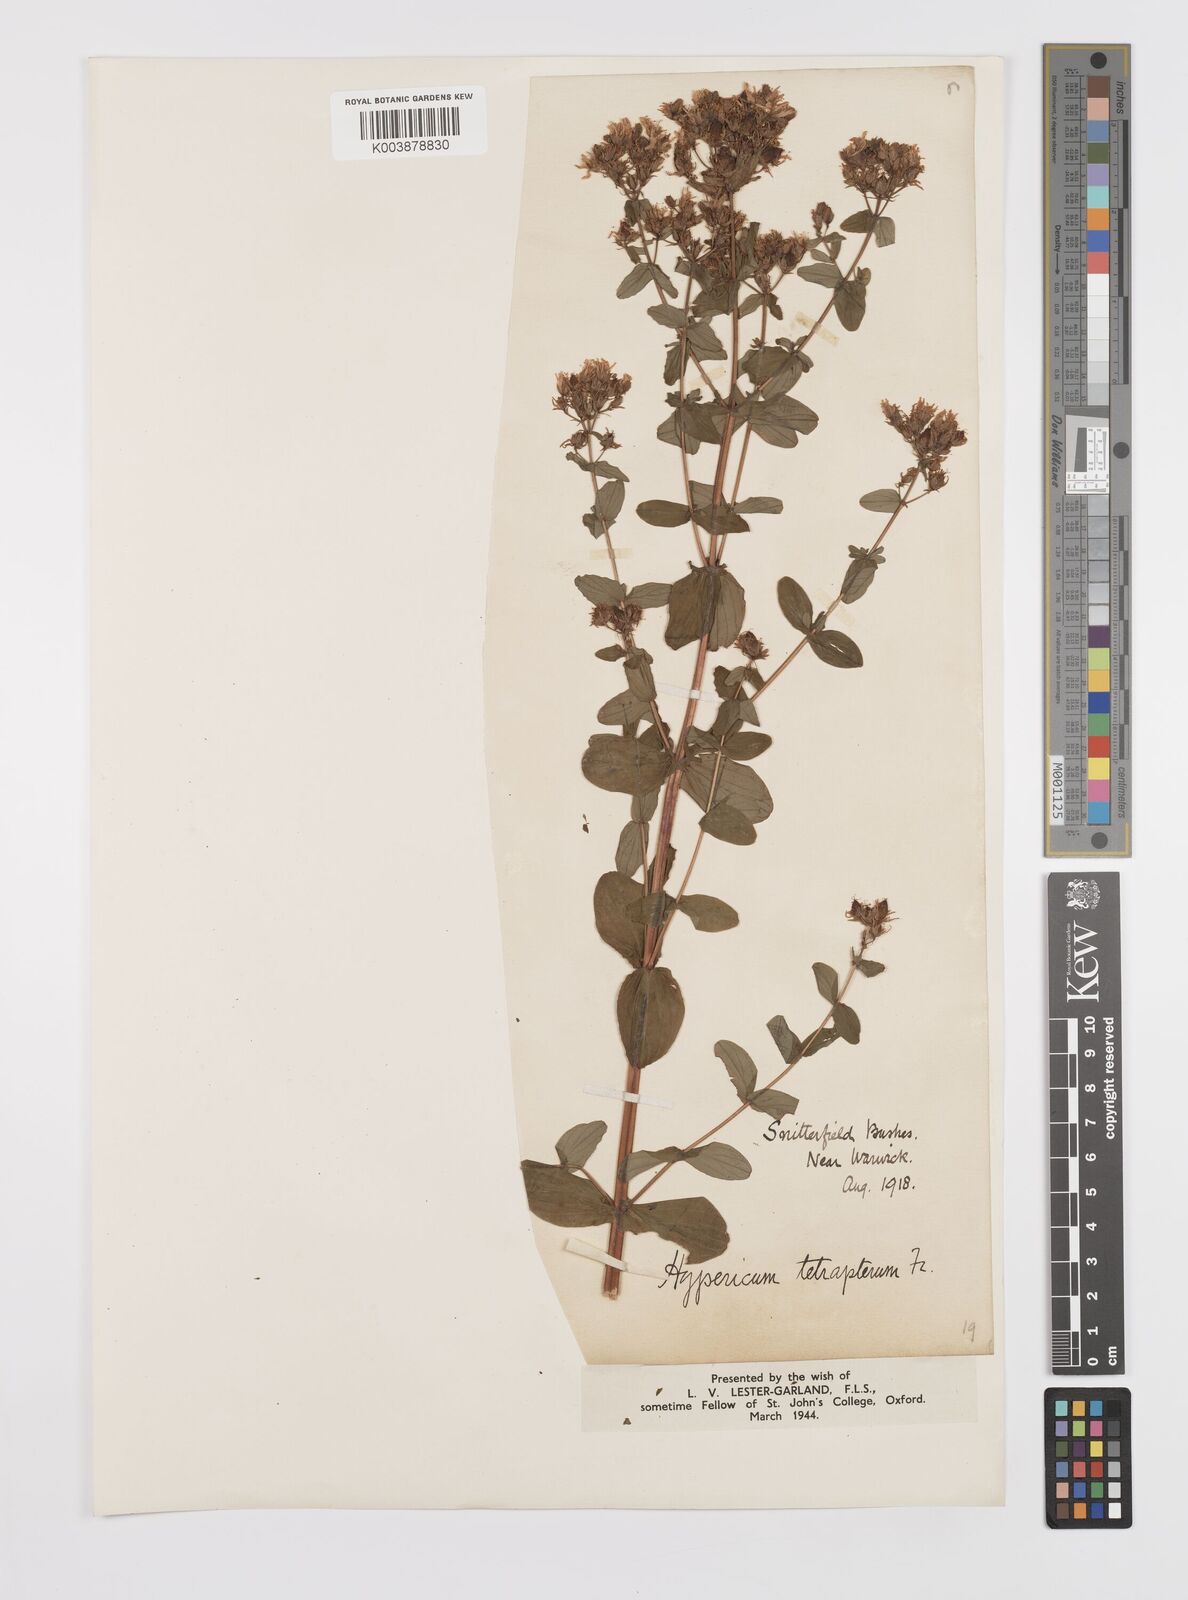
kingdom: Plantae
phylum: Tracheophyta
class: Magnoliopsida
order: Malpighiales
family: Hypericaceae
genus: Hypericum
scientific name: Hypericum tetrapterum
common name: Square-stalked st. john's-wort
